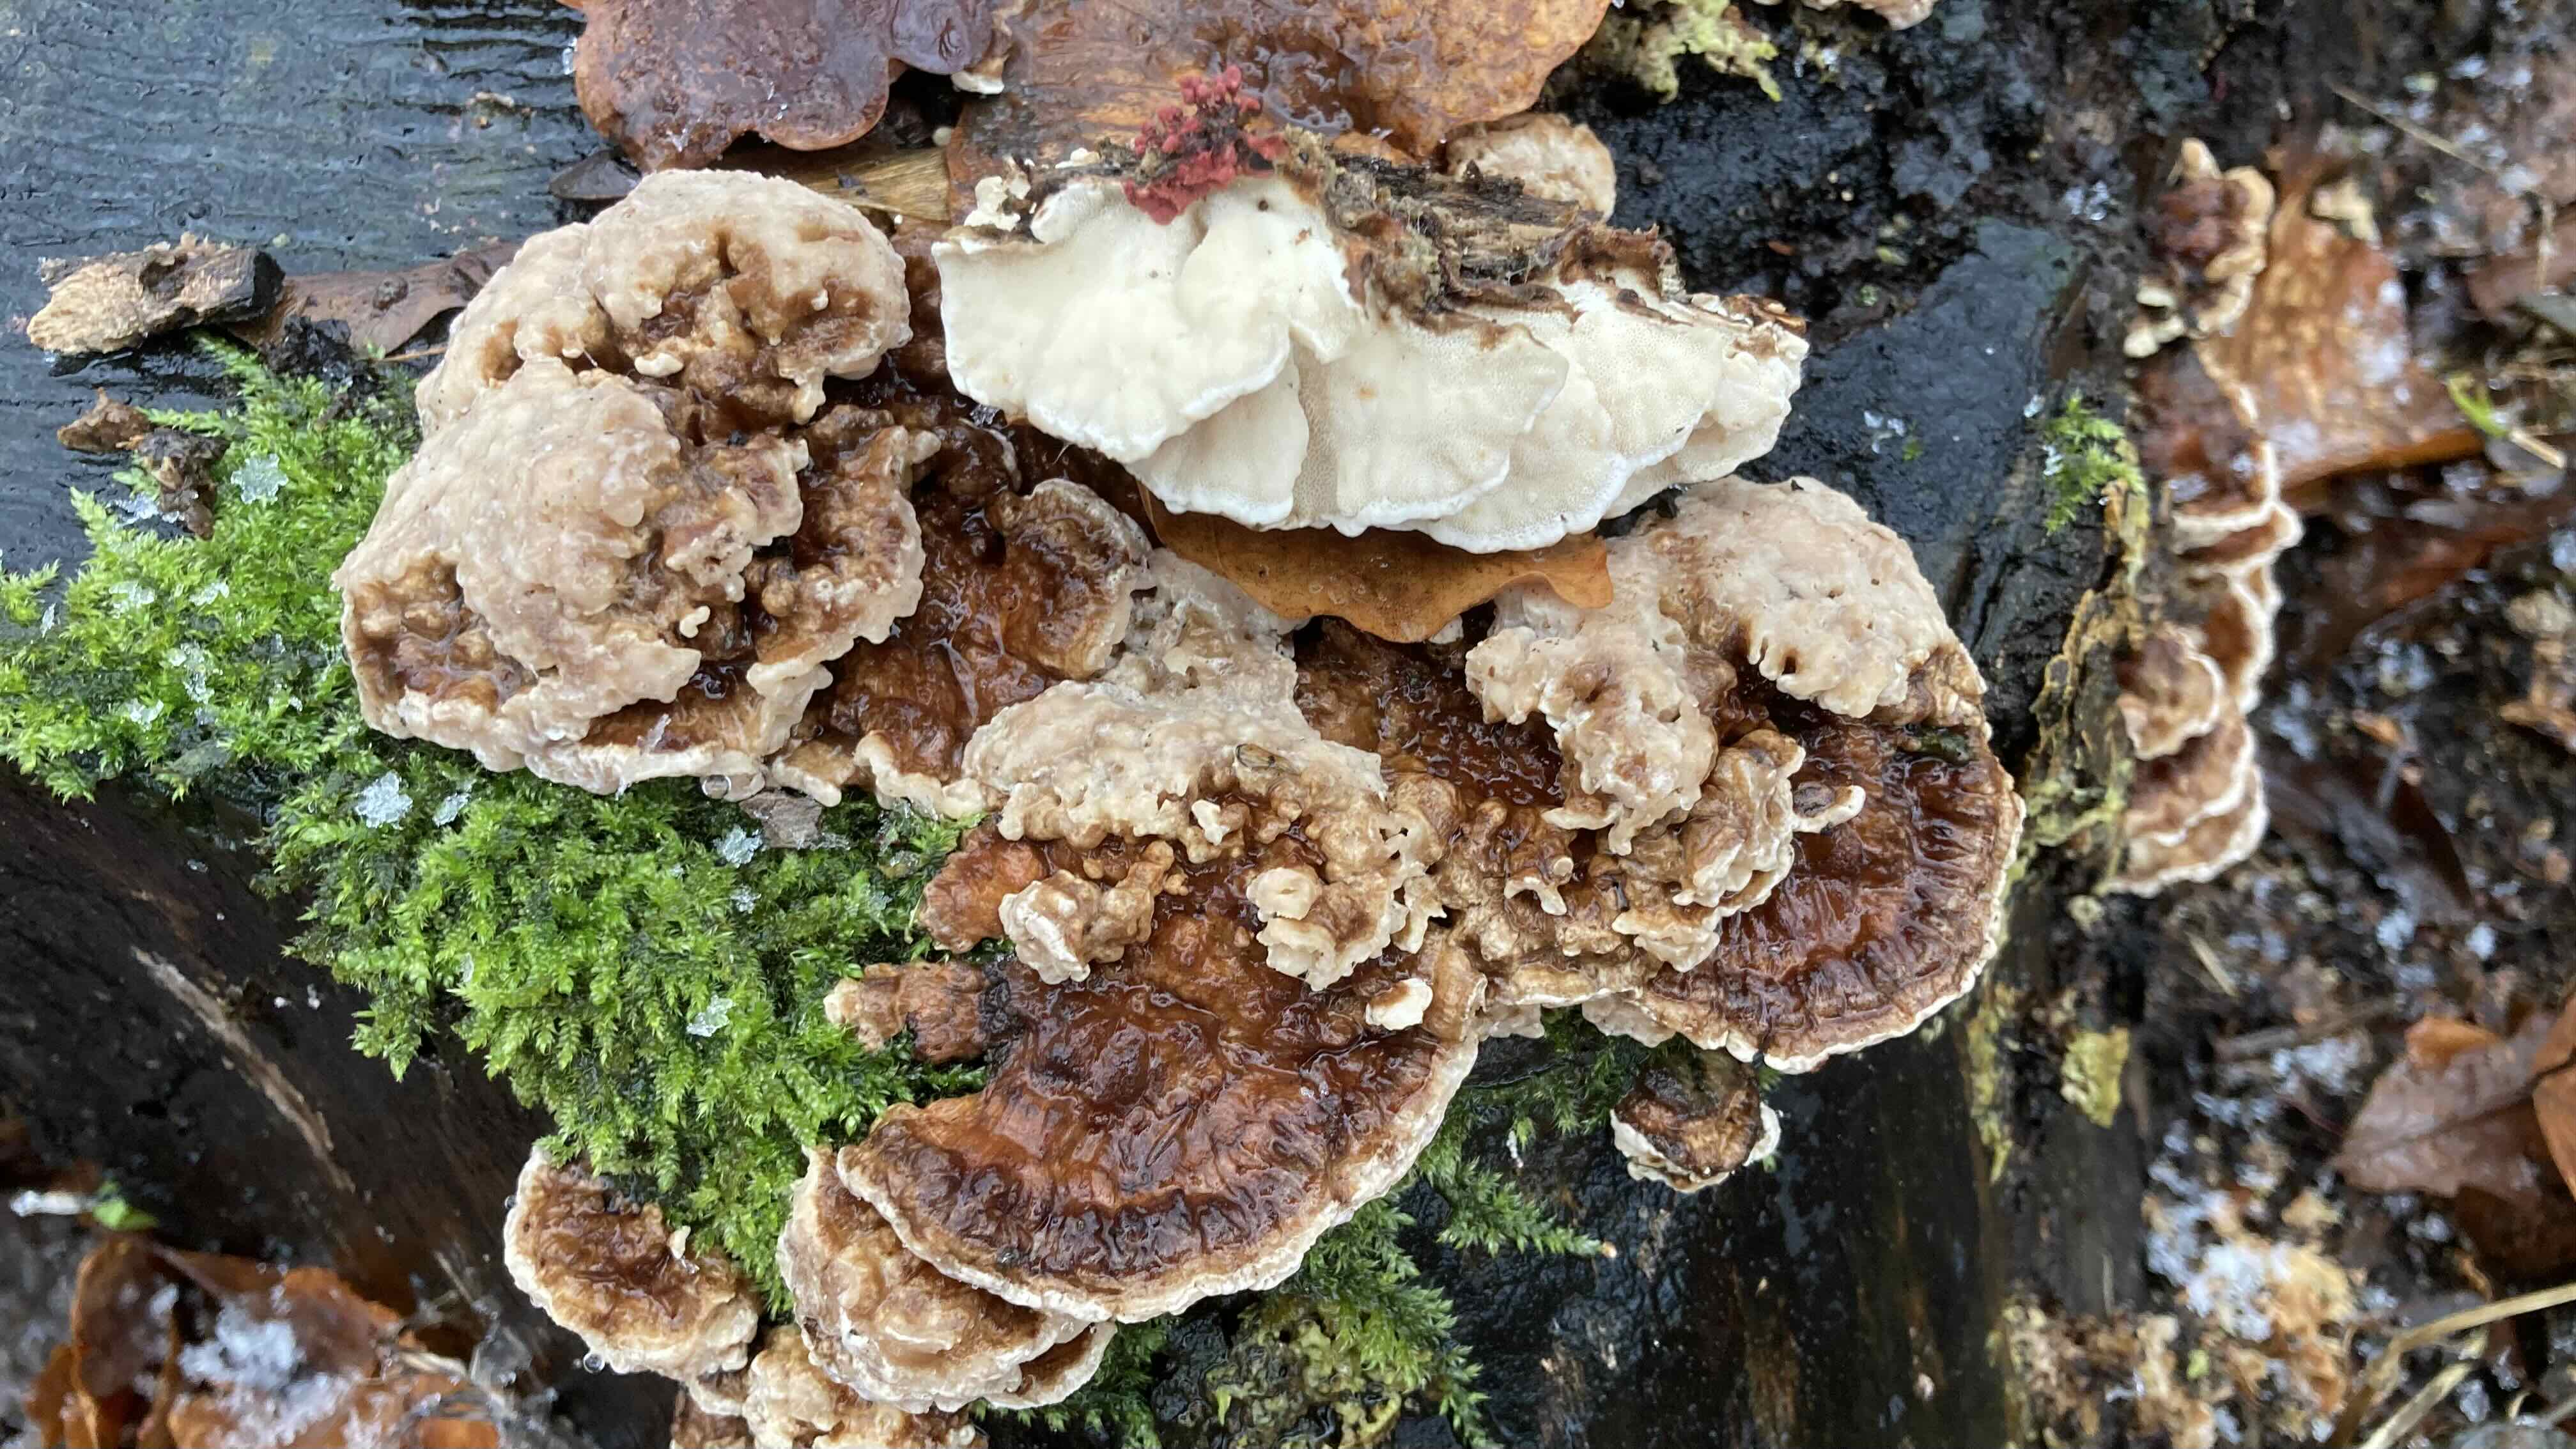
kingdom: Fungi
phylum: Basidiomycota
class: Agaricomycetes
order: Polyporales
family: Polyporaceae
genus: Trametes
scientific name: Trametes versicolor
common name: broget læderporesvamp
